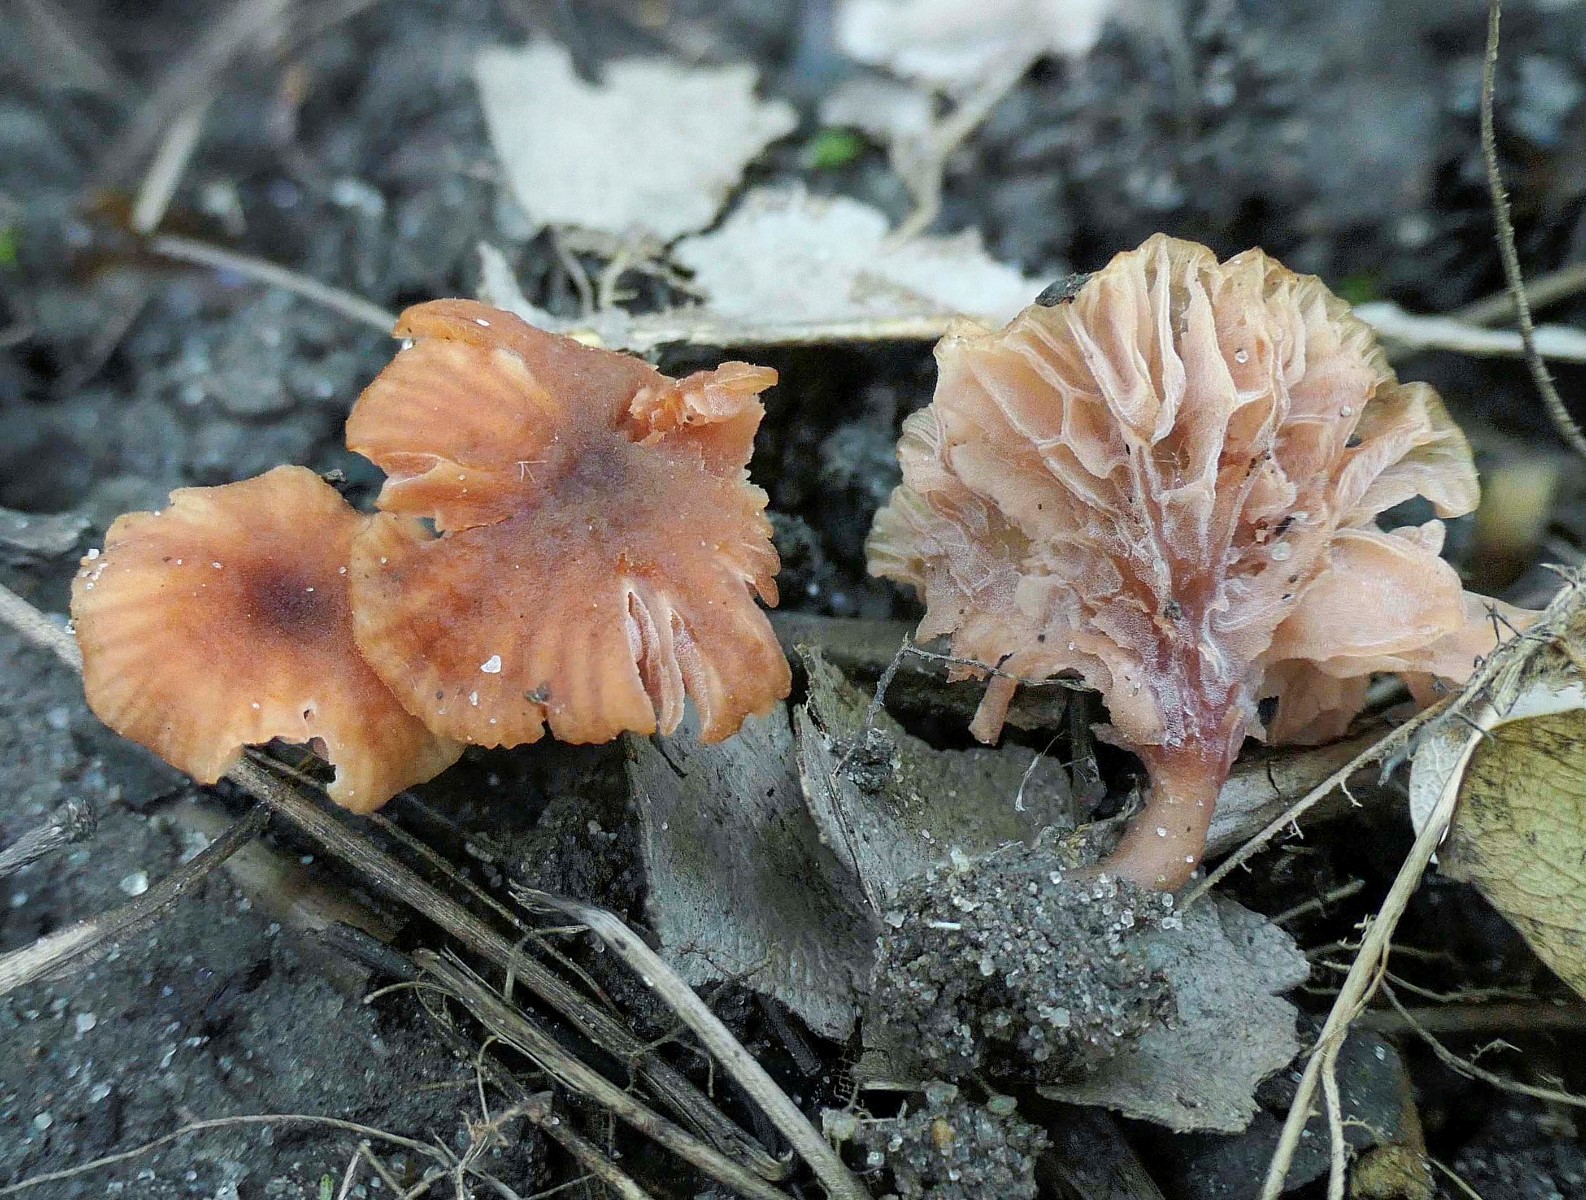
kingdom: Fungi
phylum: Basidiomycota
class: Agaricomycetes
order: Agaricales
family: Hydnangiaceae
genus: Laccaria
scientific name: Laccaria tortilis
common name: krybende ametysthat
